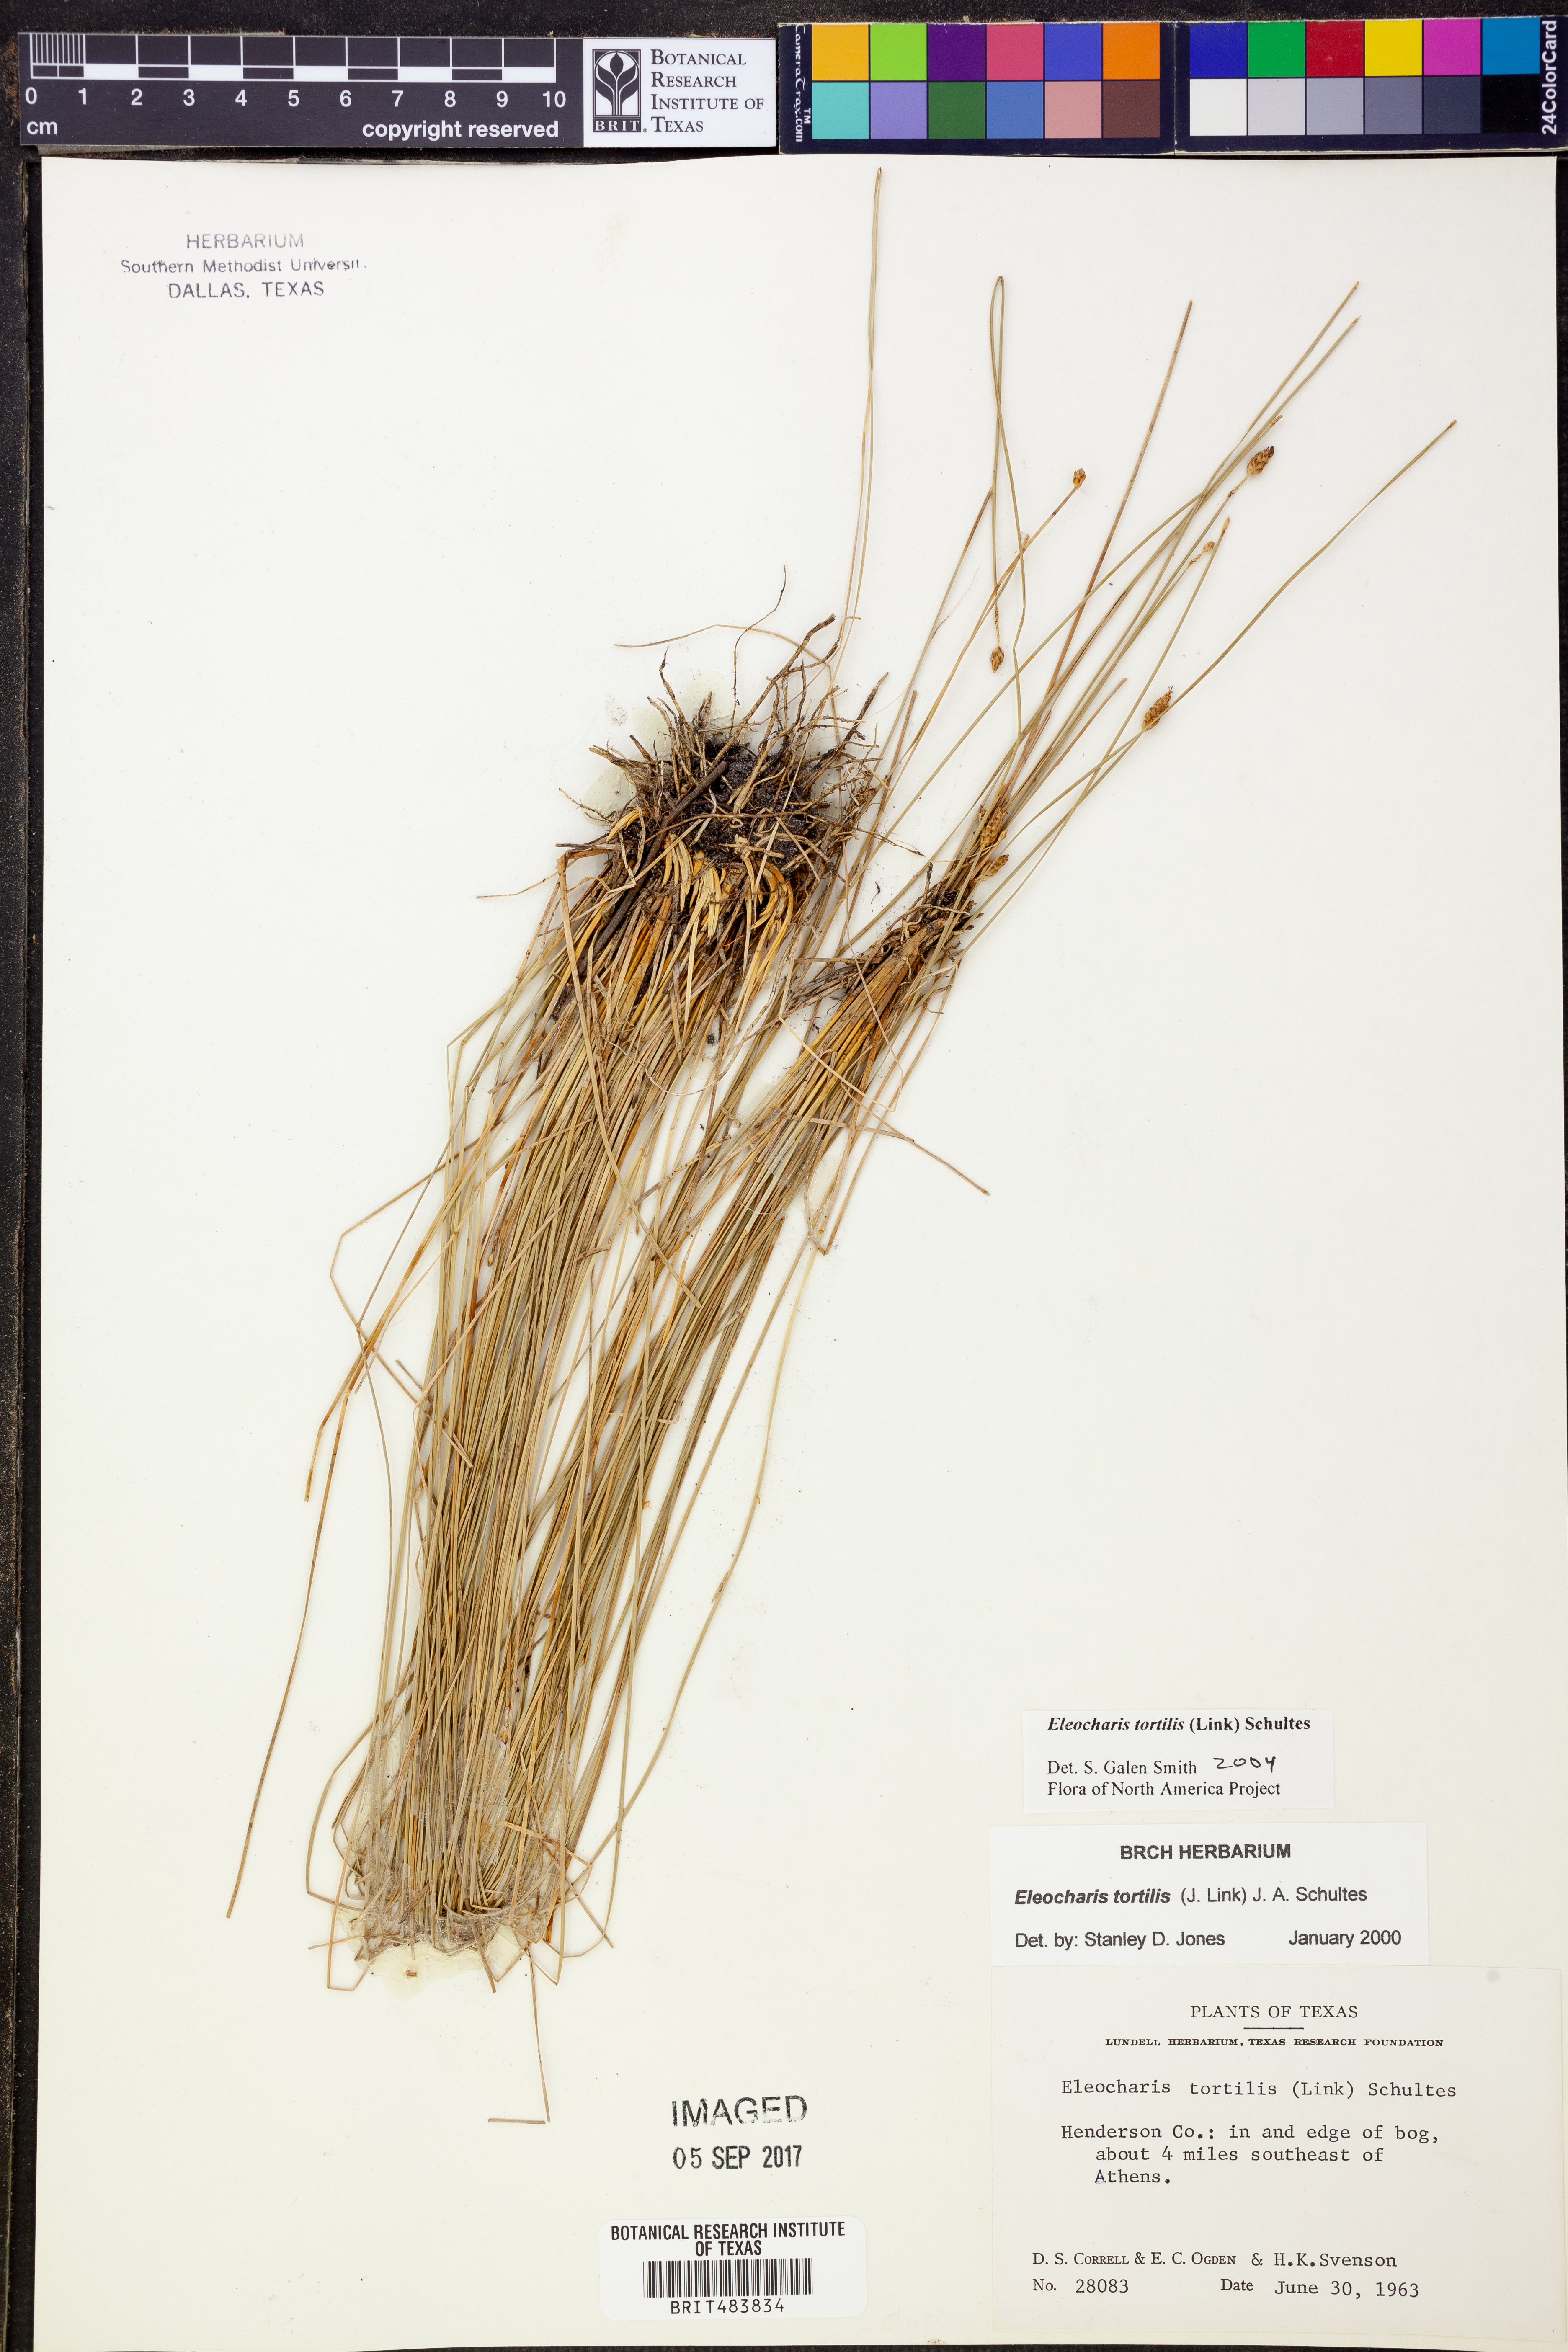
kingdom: Plantae
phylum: Tracheophyta
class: Liliopsida
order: Poales
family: Cyperaceae
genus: Eleocharis
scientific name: Eleocharis tortilis
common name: Twisted spike sedge
